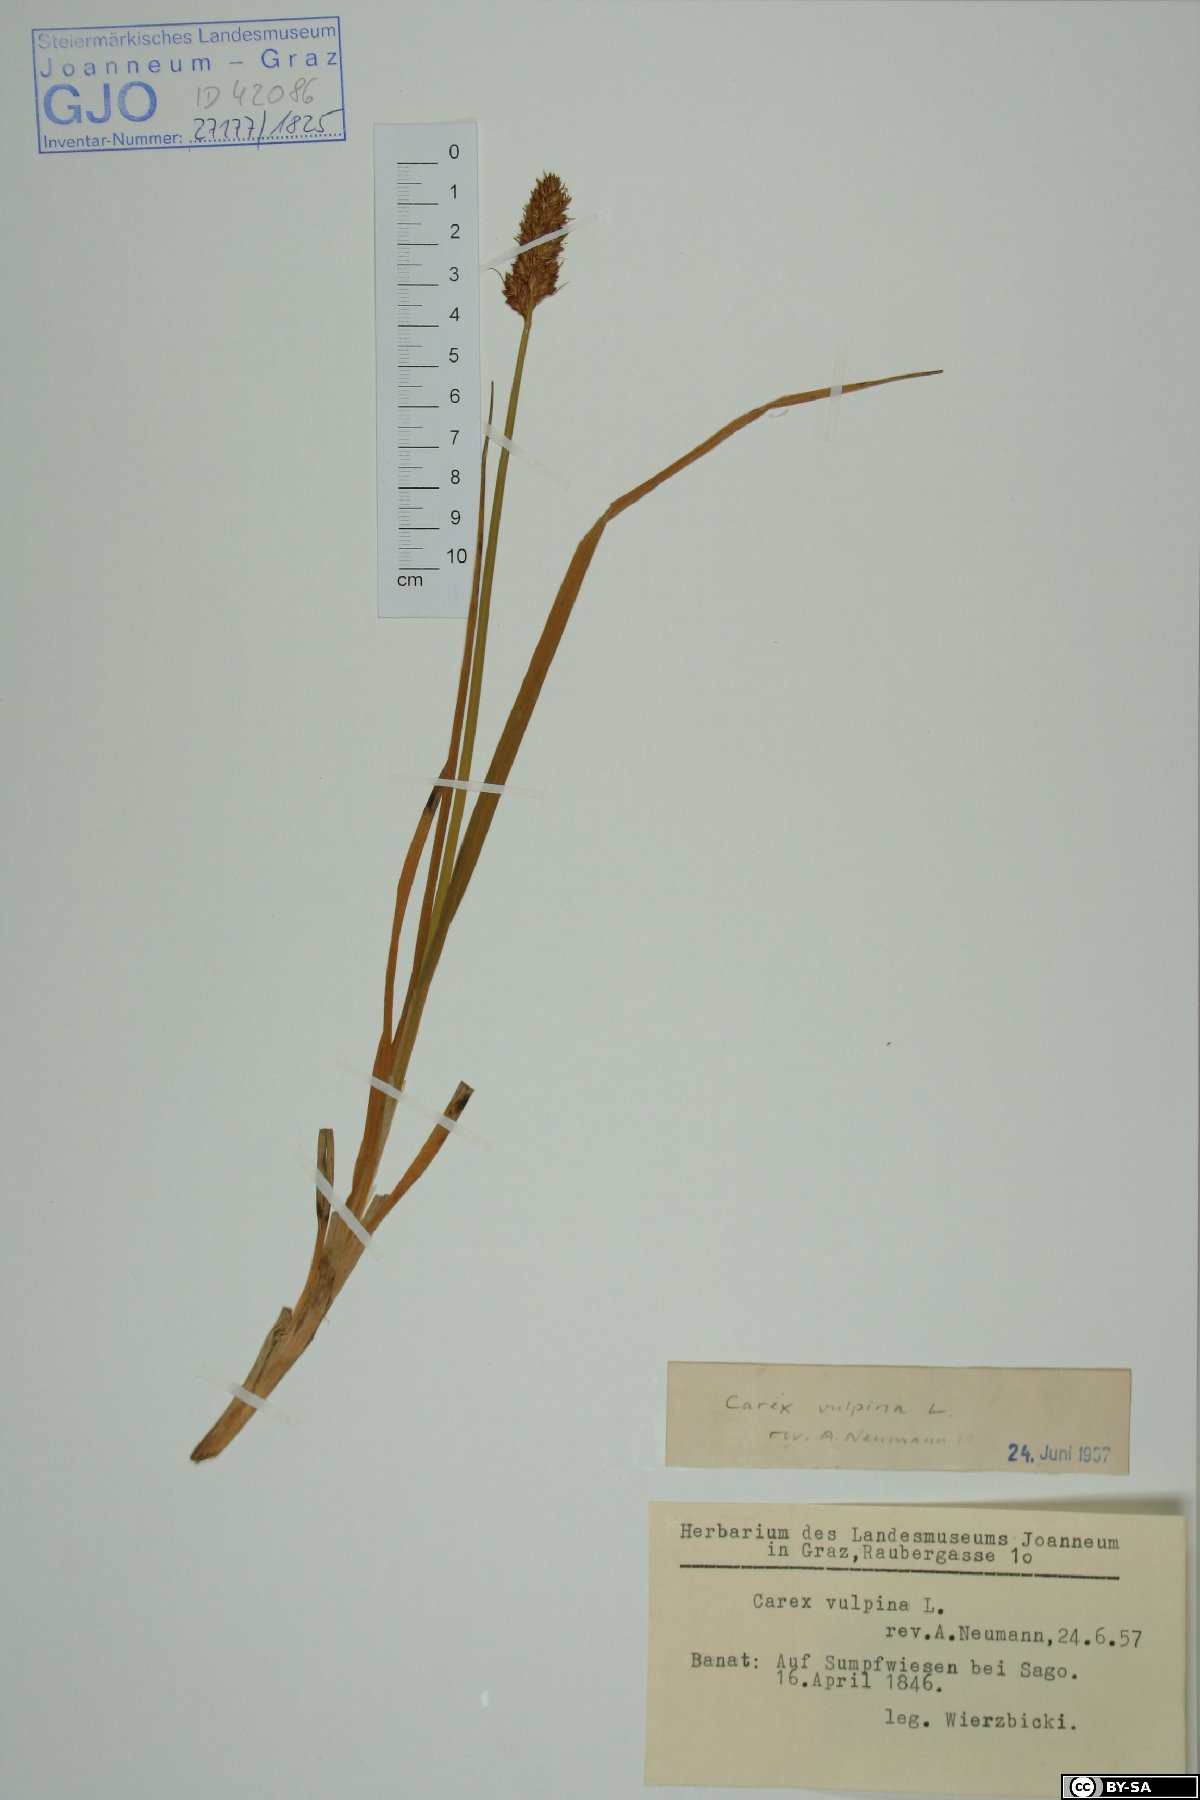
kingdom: Plantae
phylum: Tracheophyta
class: Liliopsida
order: Poales
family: Cyperaceae
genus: Carex
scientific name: Carex vulpina
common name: True fox-sedge
